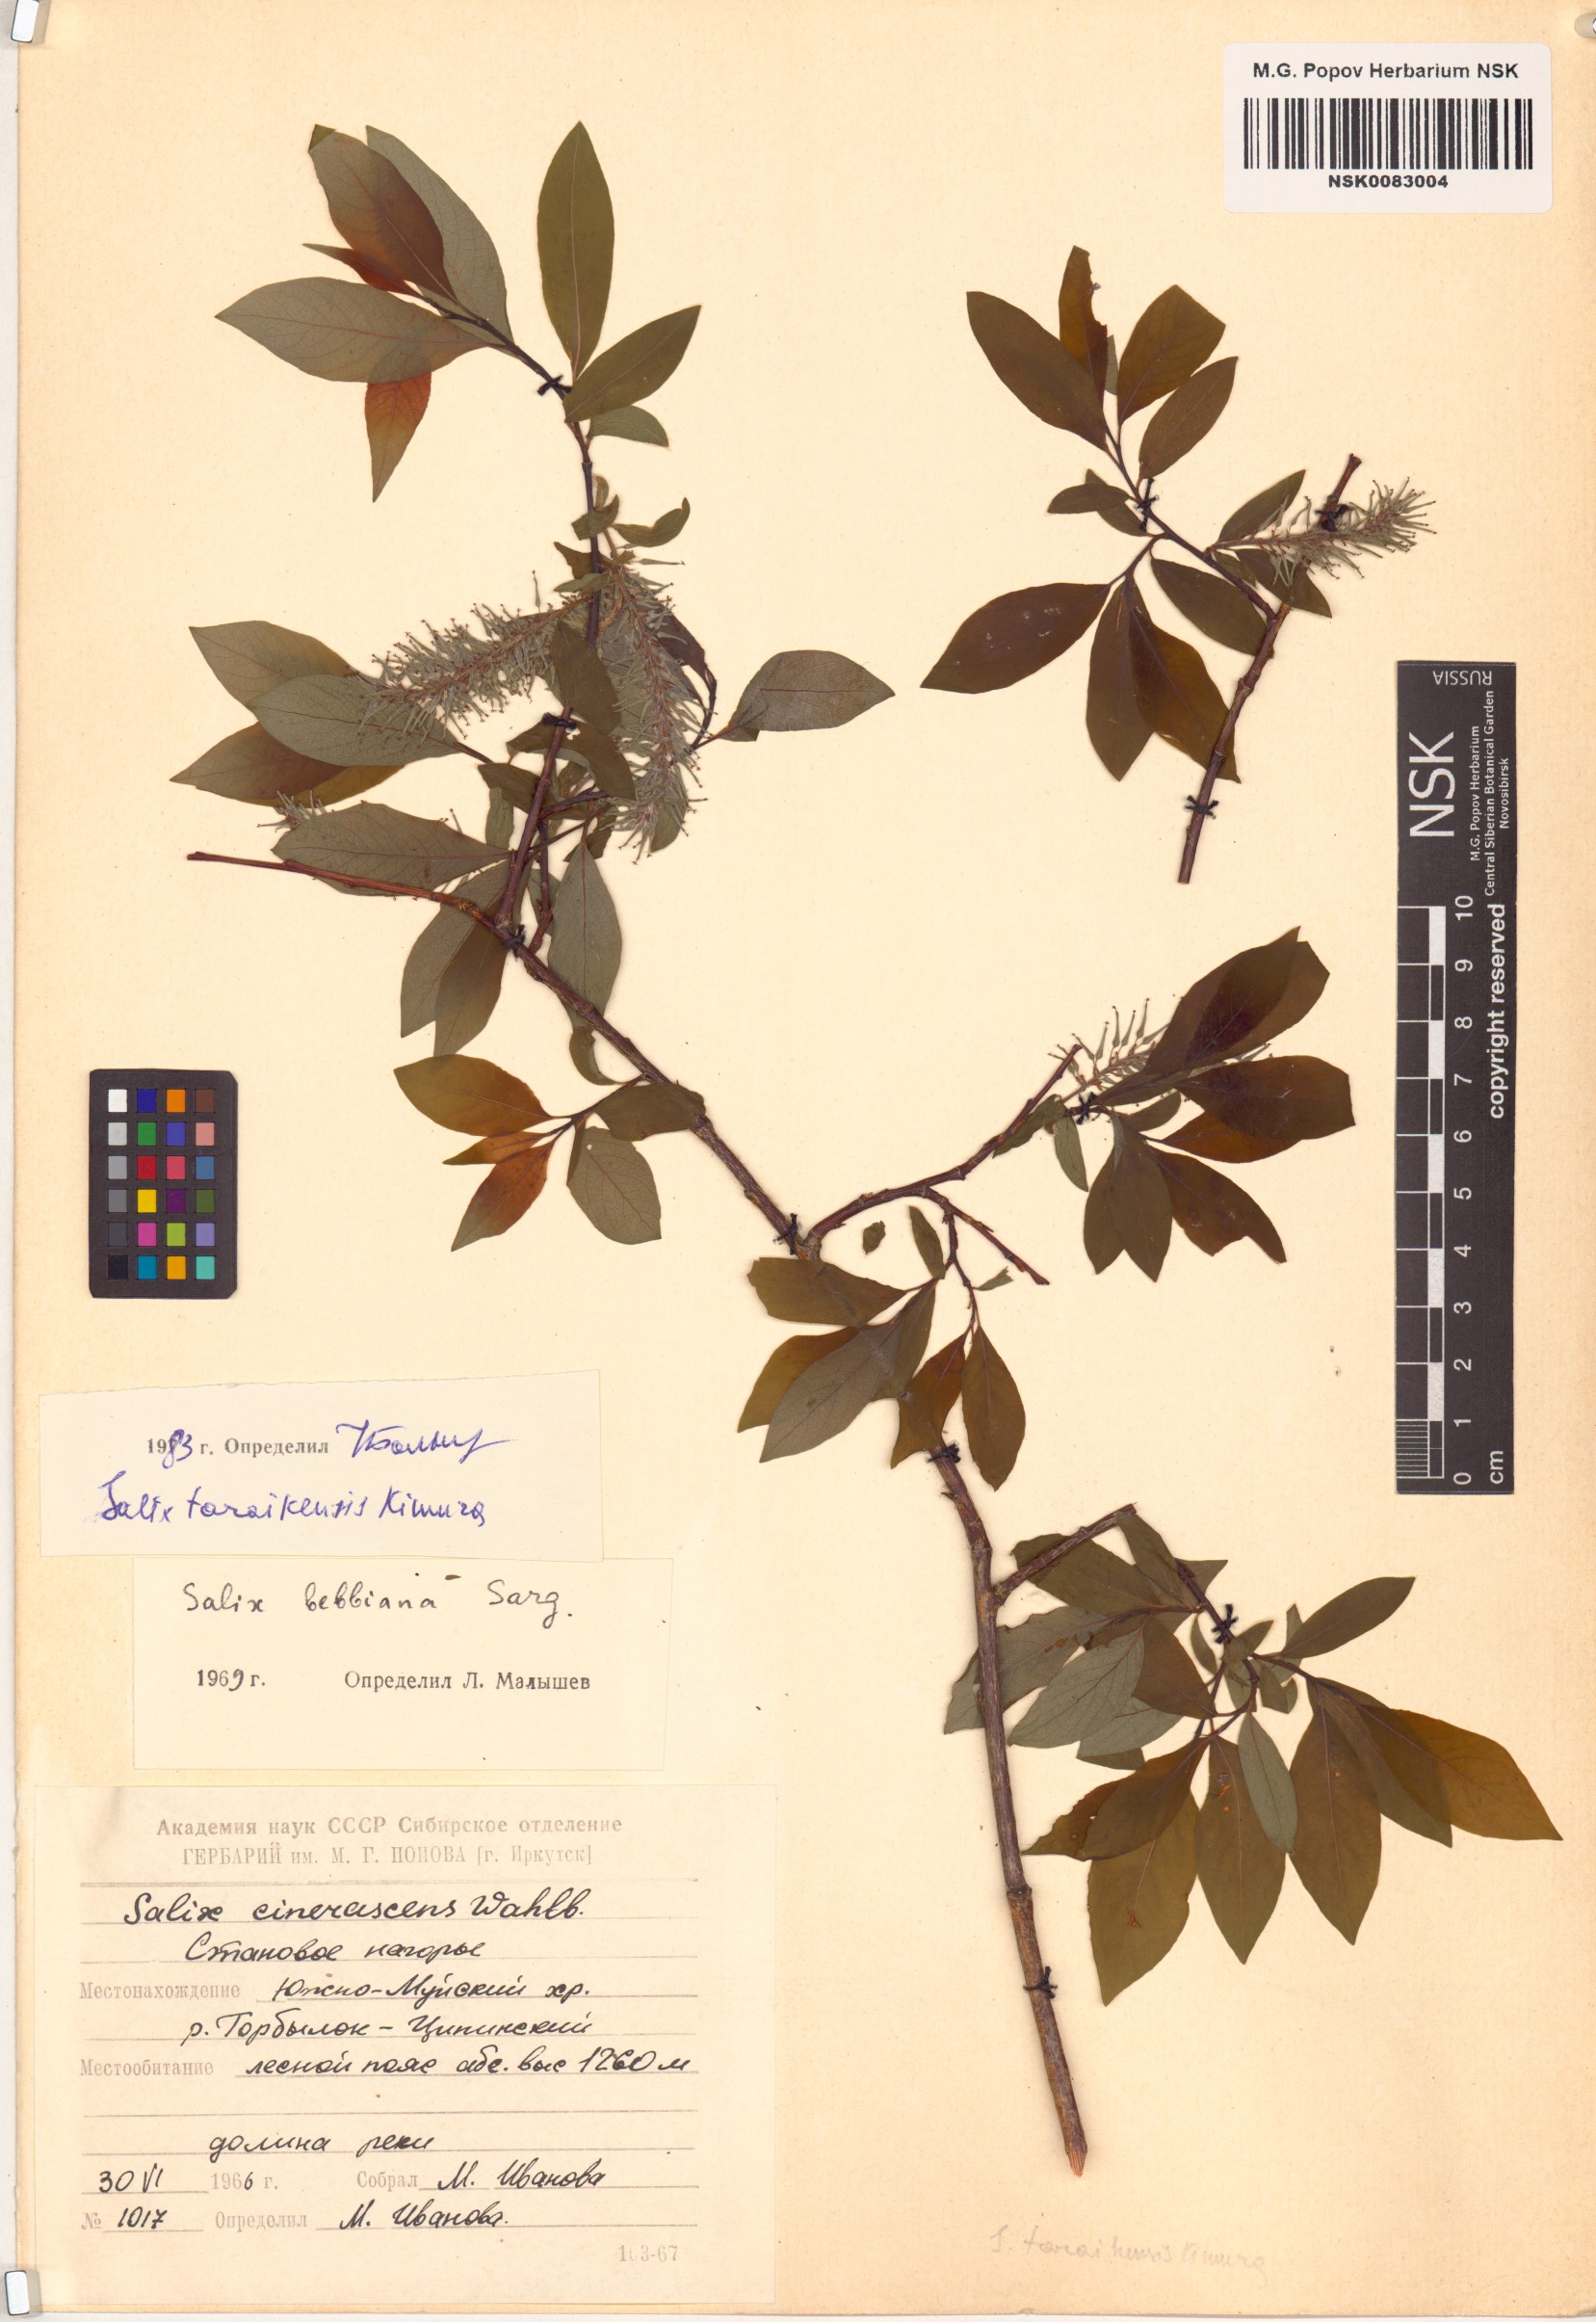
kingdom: Plantae
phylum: Tracheophyta
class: Magnoliopsida
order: Malpighiales
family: Salicaceae
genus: Salix
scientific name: Salix taraikensis
